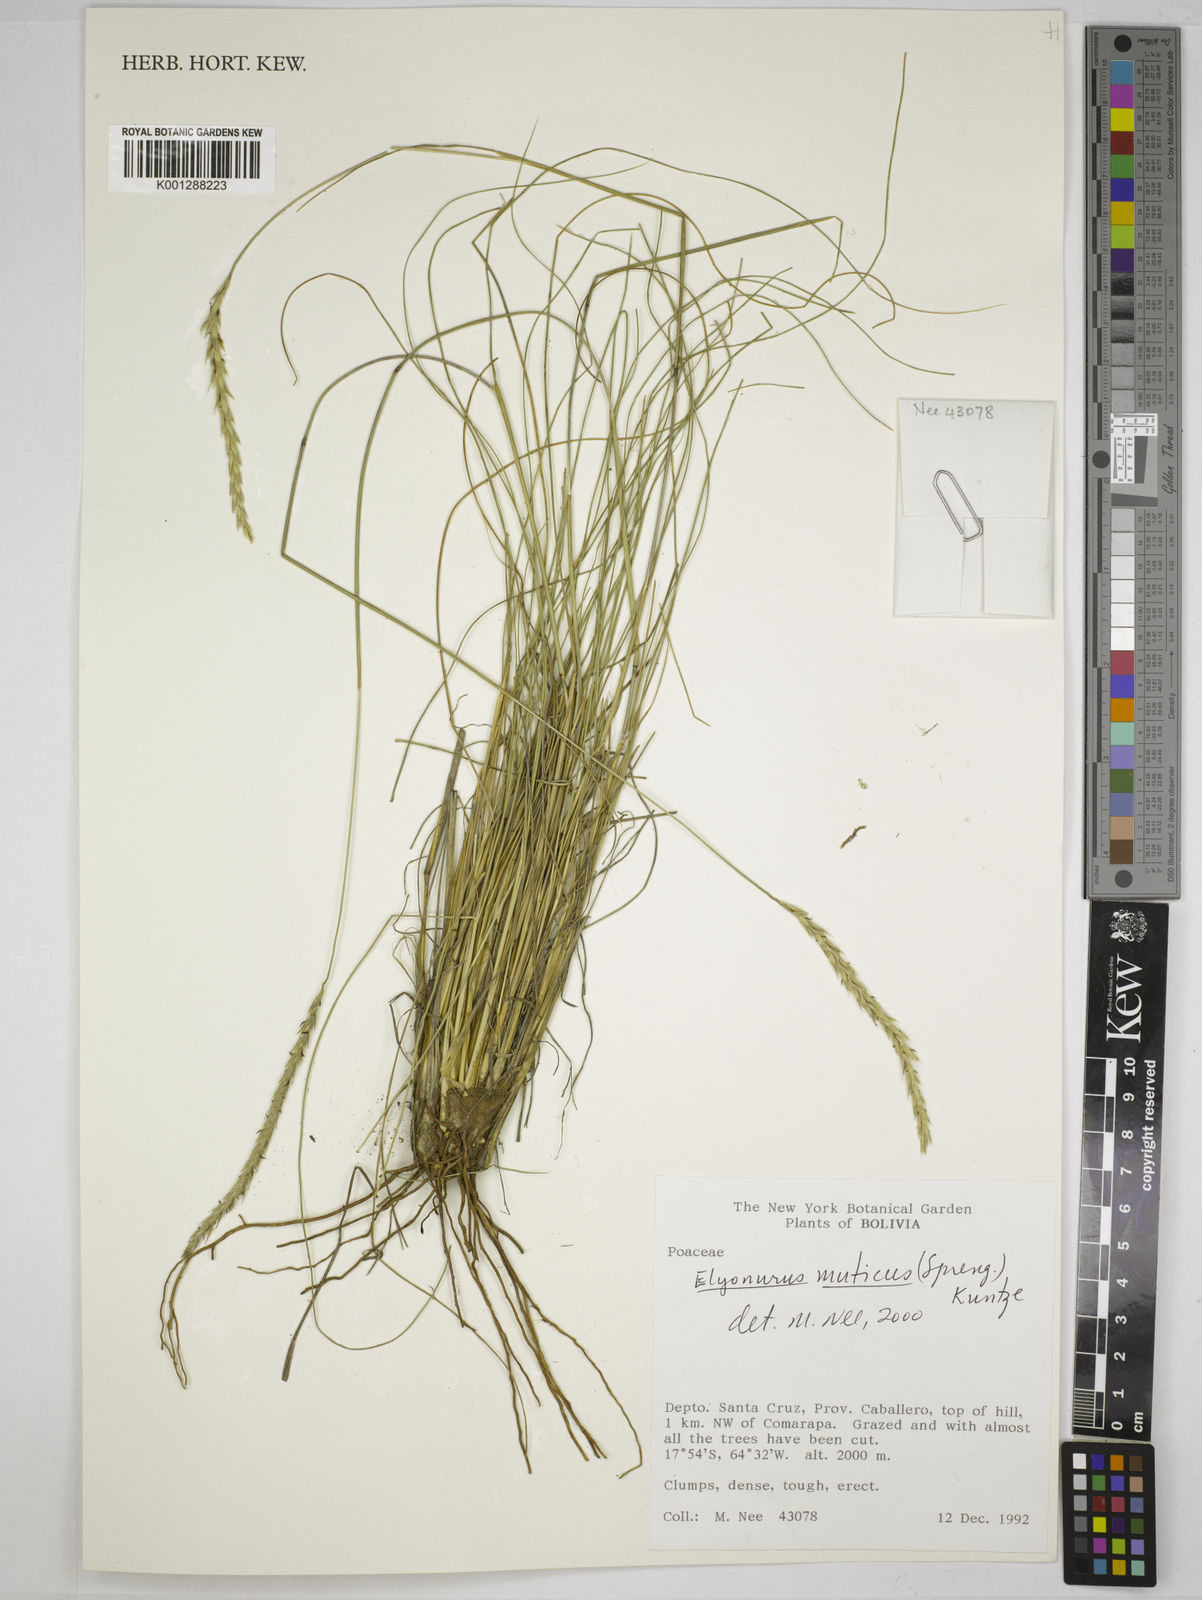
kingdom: Plantae
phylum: Tracheophyta
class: Liliopsida
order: Poales
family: Poaceae
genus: Elionurus
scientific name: Elionurus muticus
